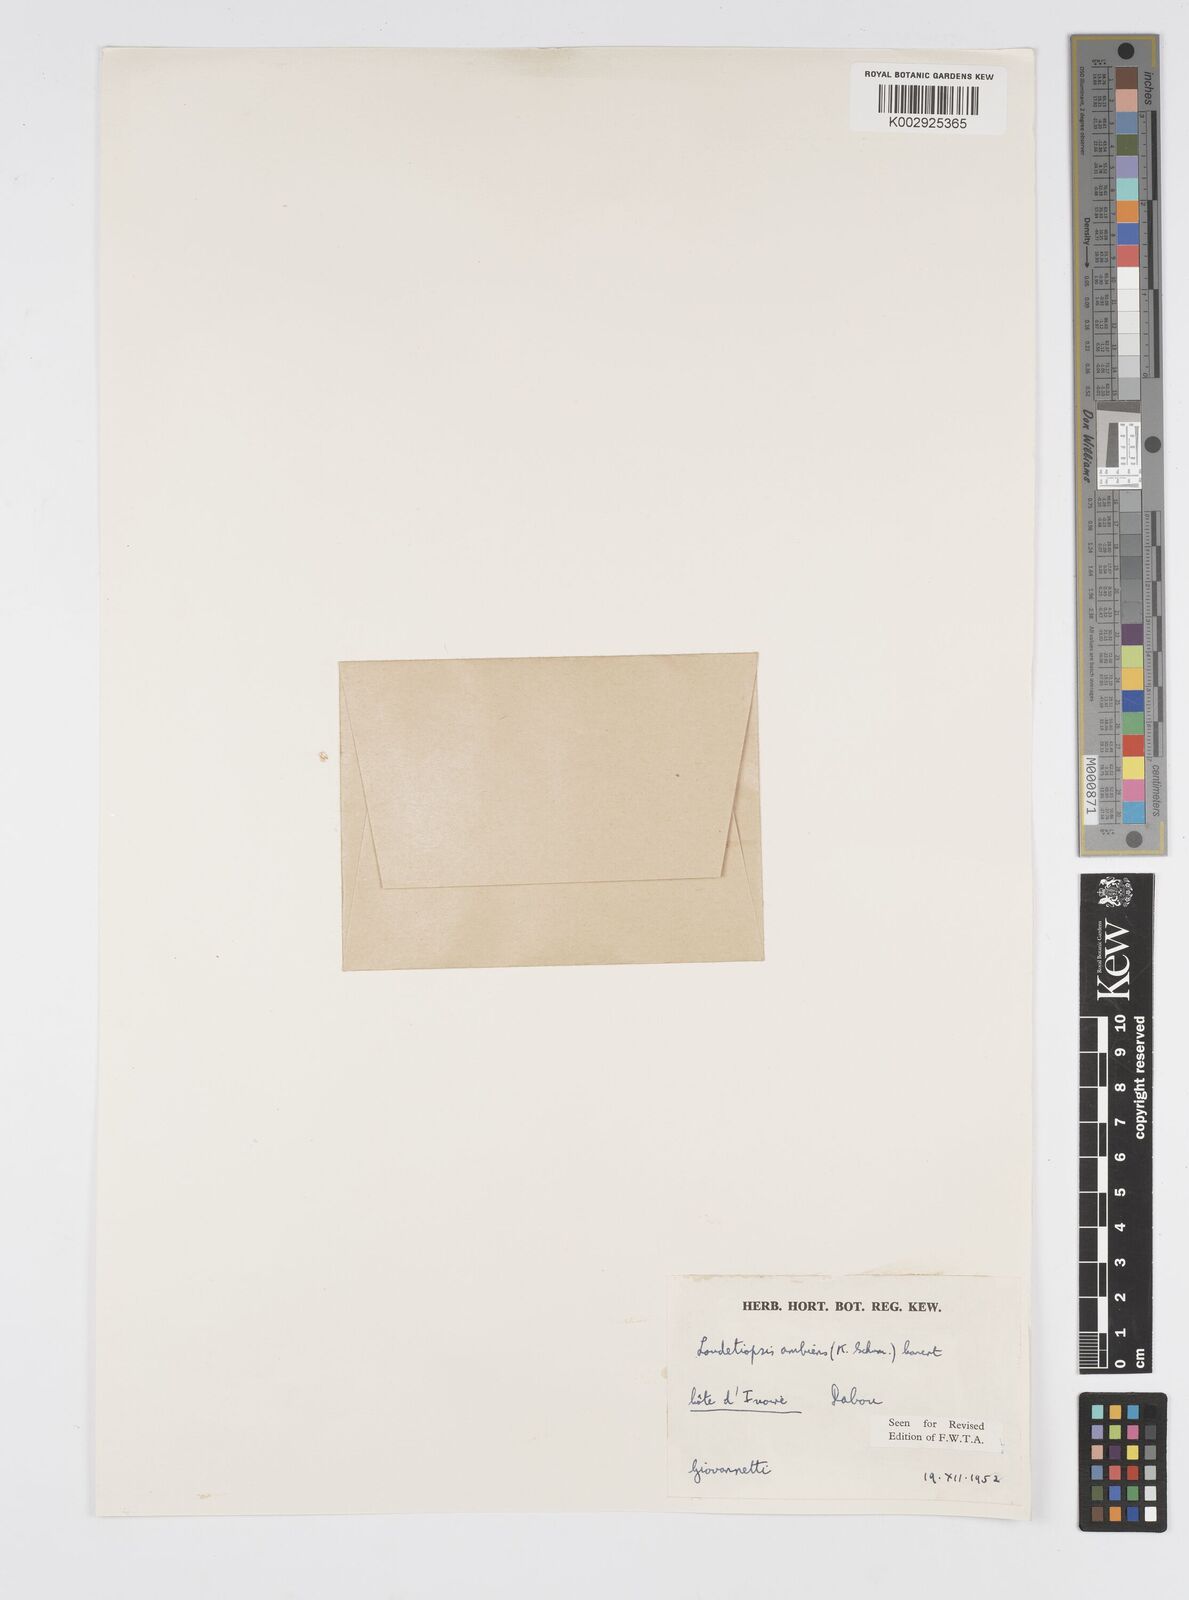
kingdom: Plantae
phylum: Tracheophyta
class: Liliopsida
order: Poales
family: Poaceae
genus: Loudetiopsis
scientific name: Loudetiopsis ambiens
